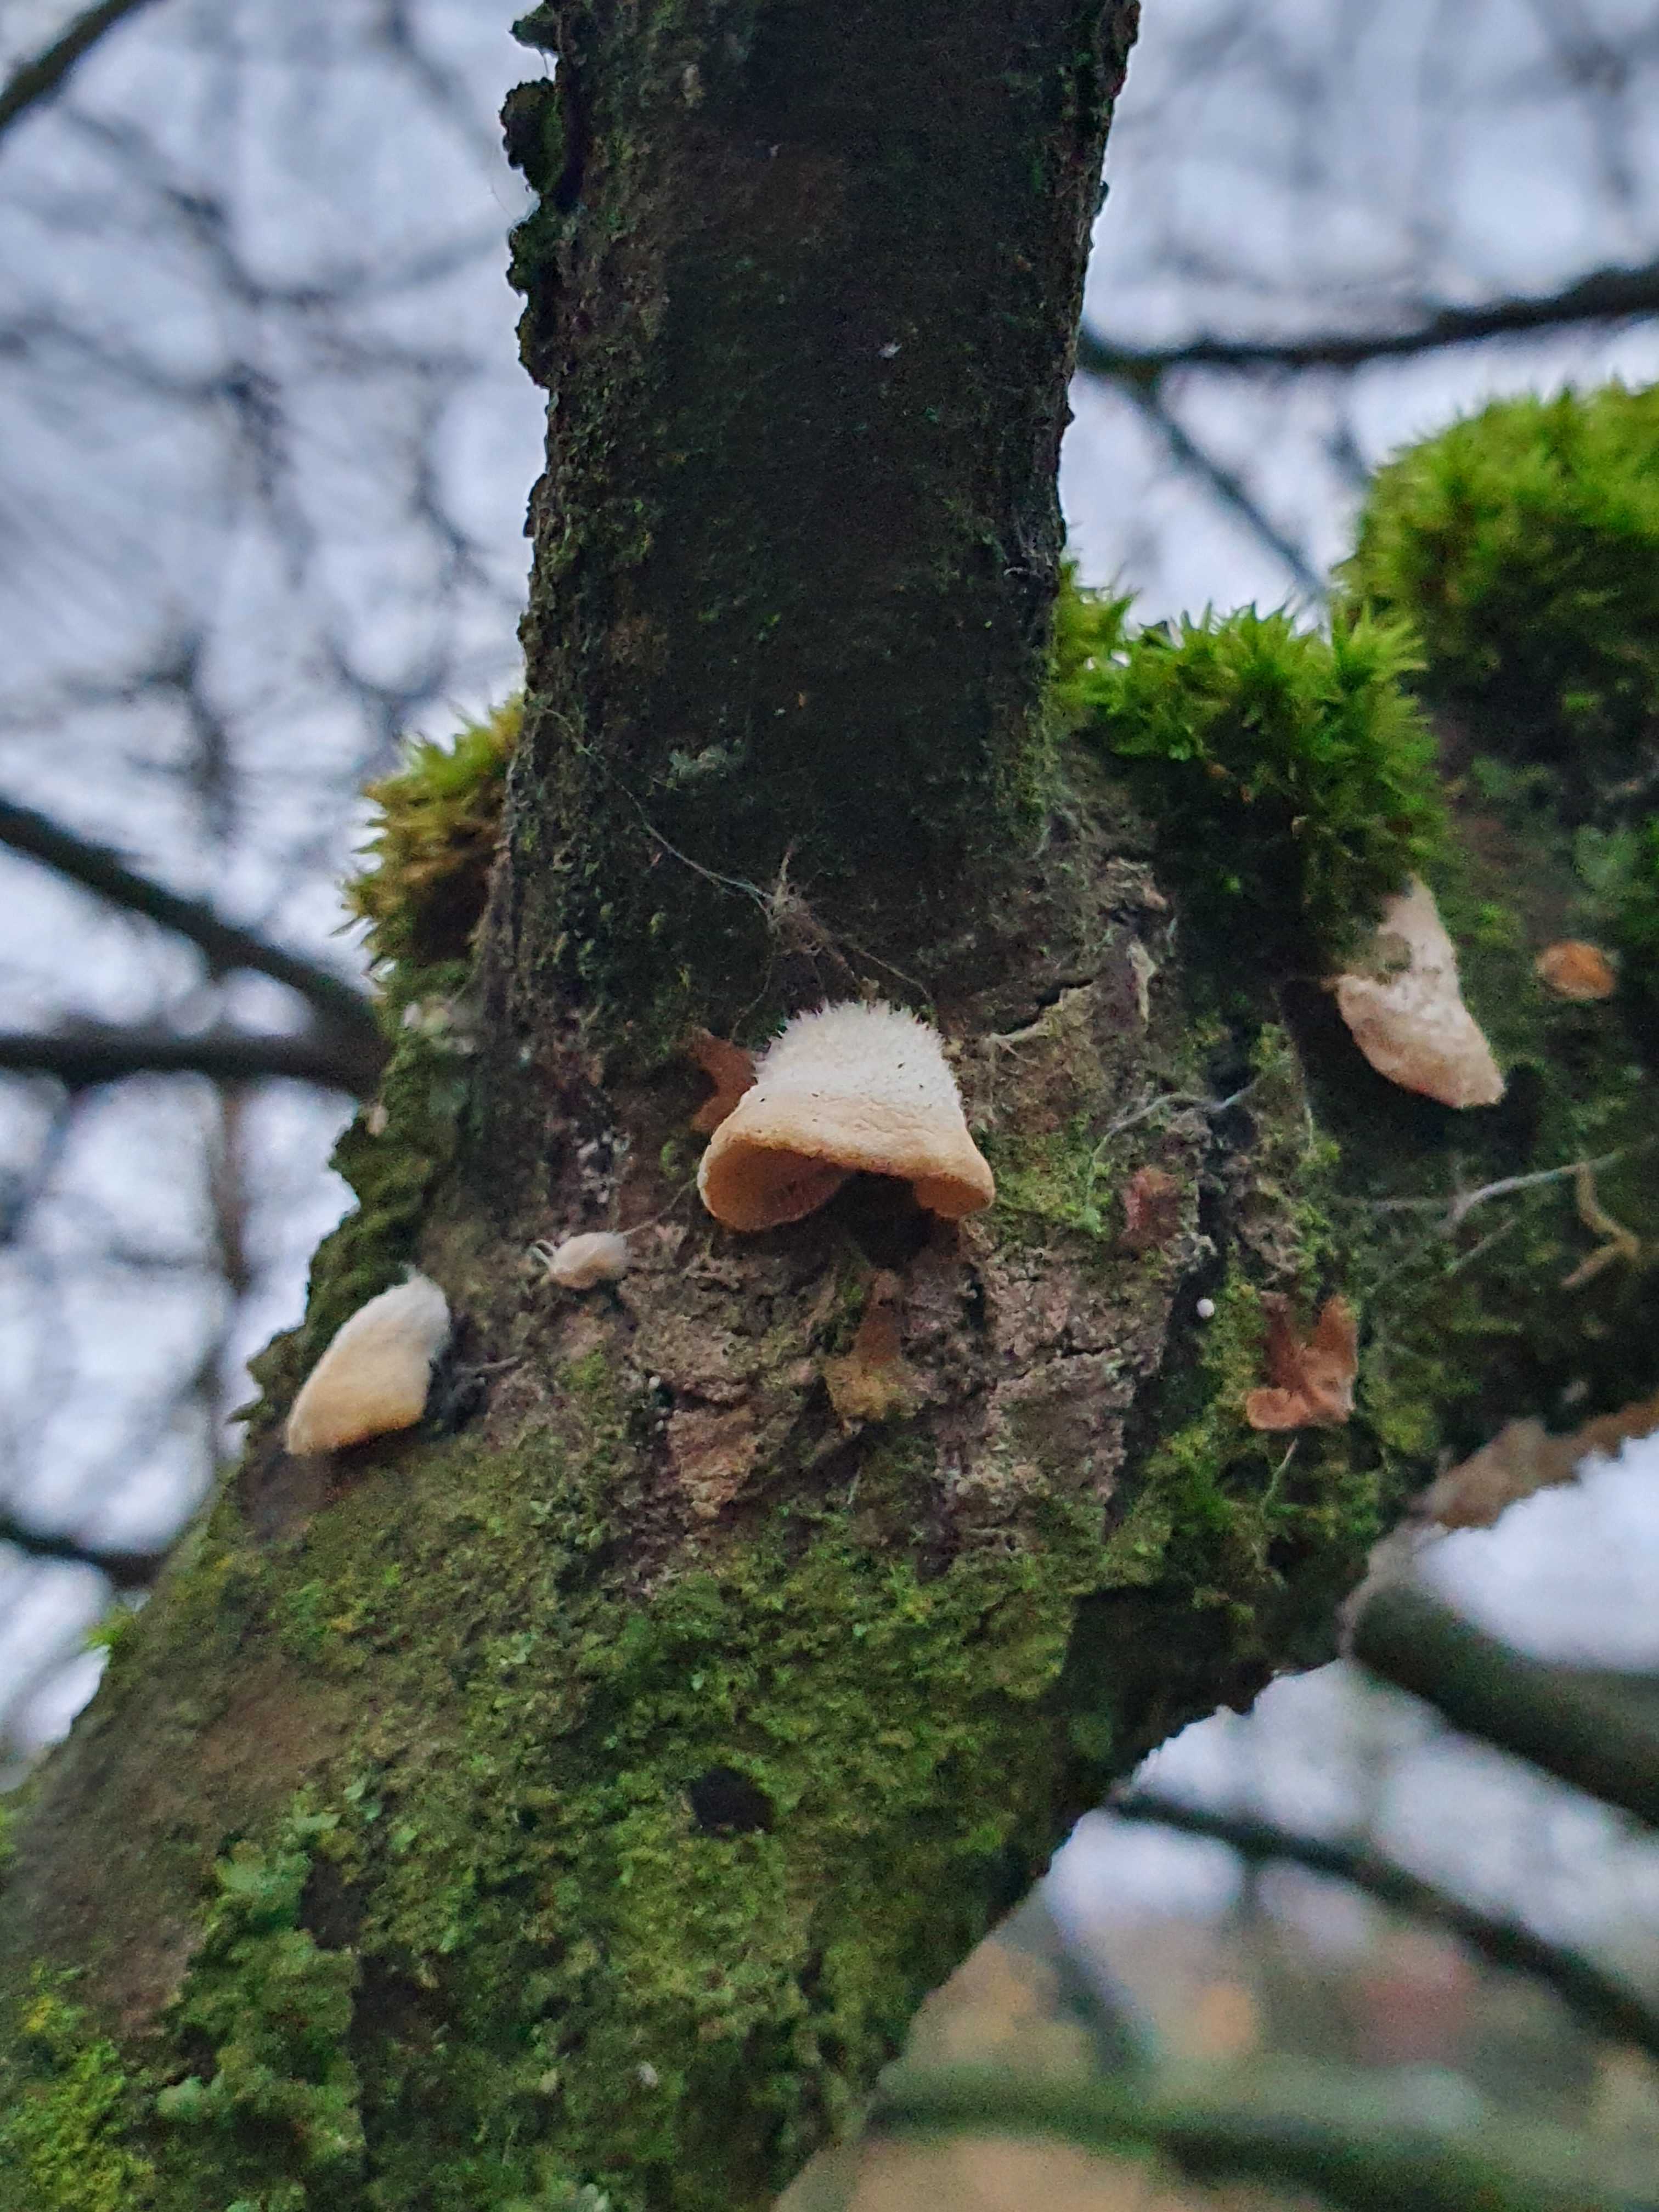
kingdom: Fungi
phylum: Basidiomycota
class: Agaricomycetes
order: Agaricales
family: Crepidotaceae
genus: Crepidotus
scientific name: Crepidotus
